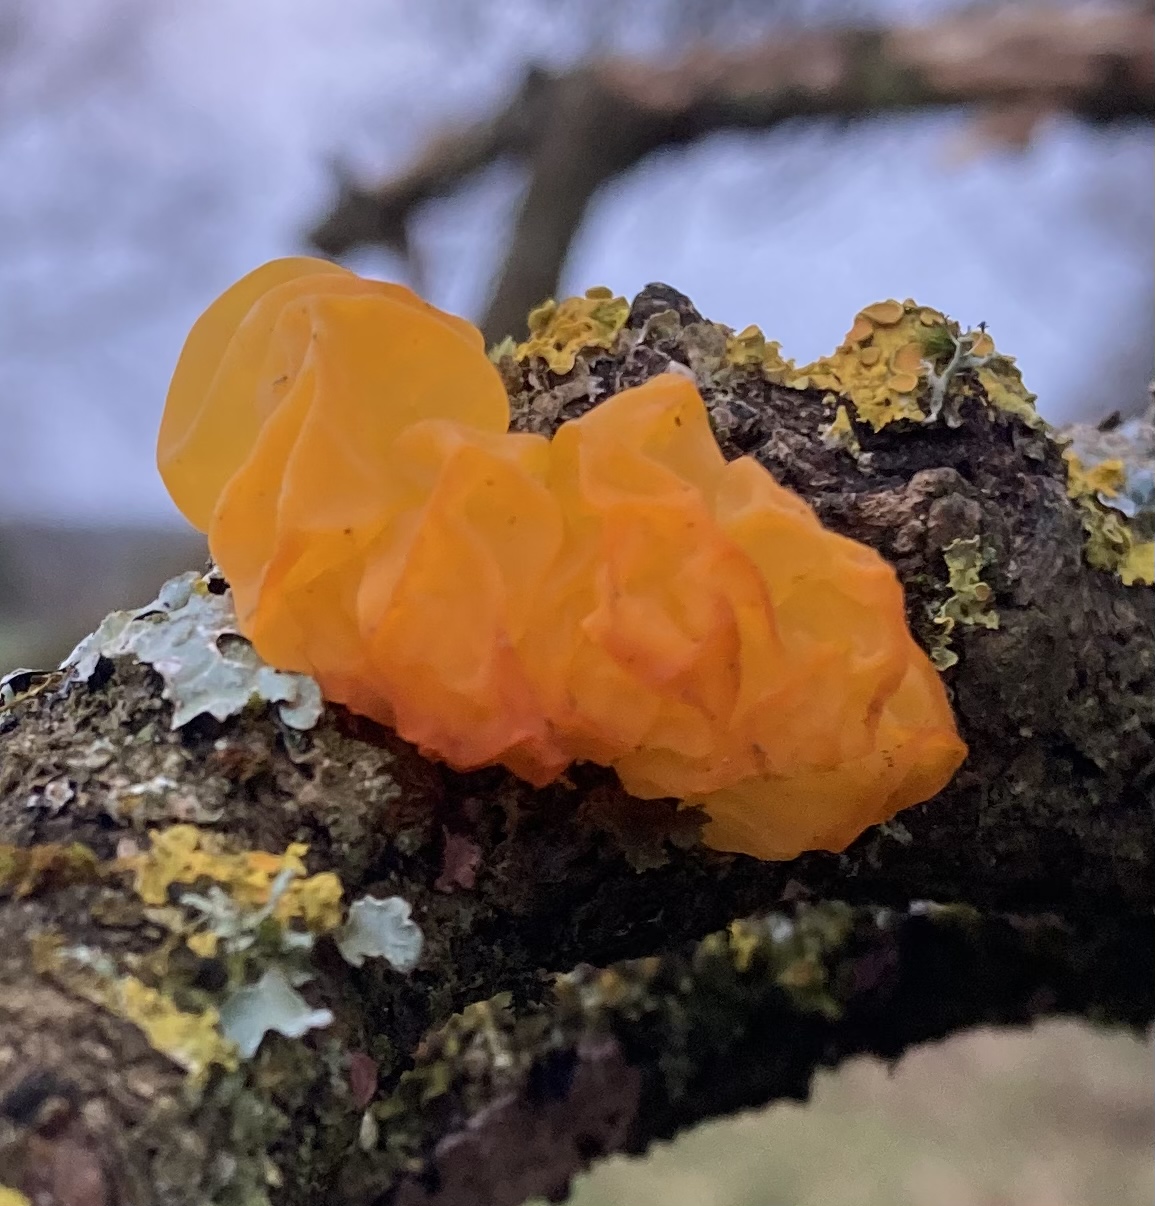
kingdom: Fungi
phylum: Basidiomycota
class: Tremellomycetes
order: Tremellales
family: Tremellaceae
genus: Tremella
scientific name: Tremella mesenterica
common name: gul bævresvamp
